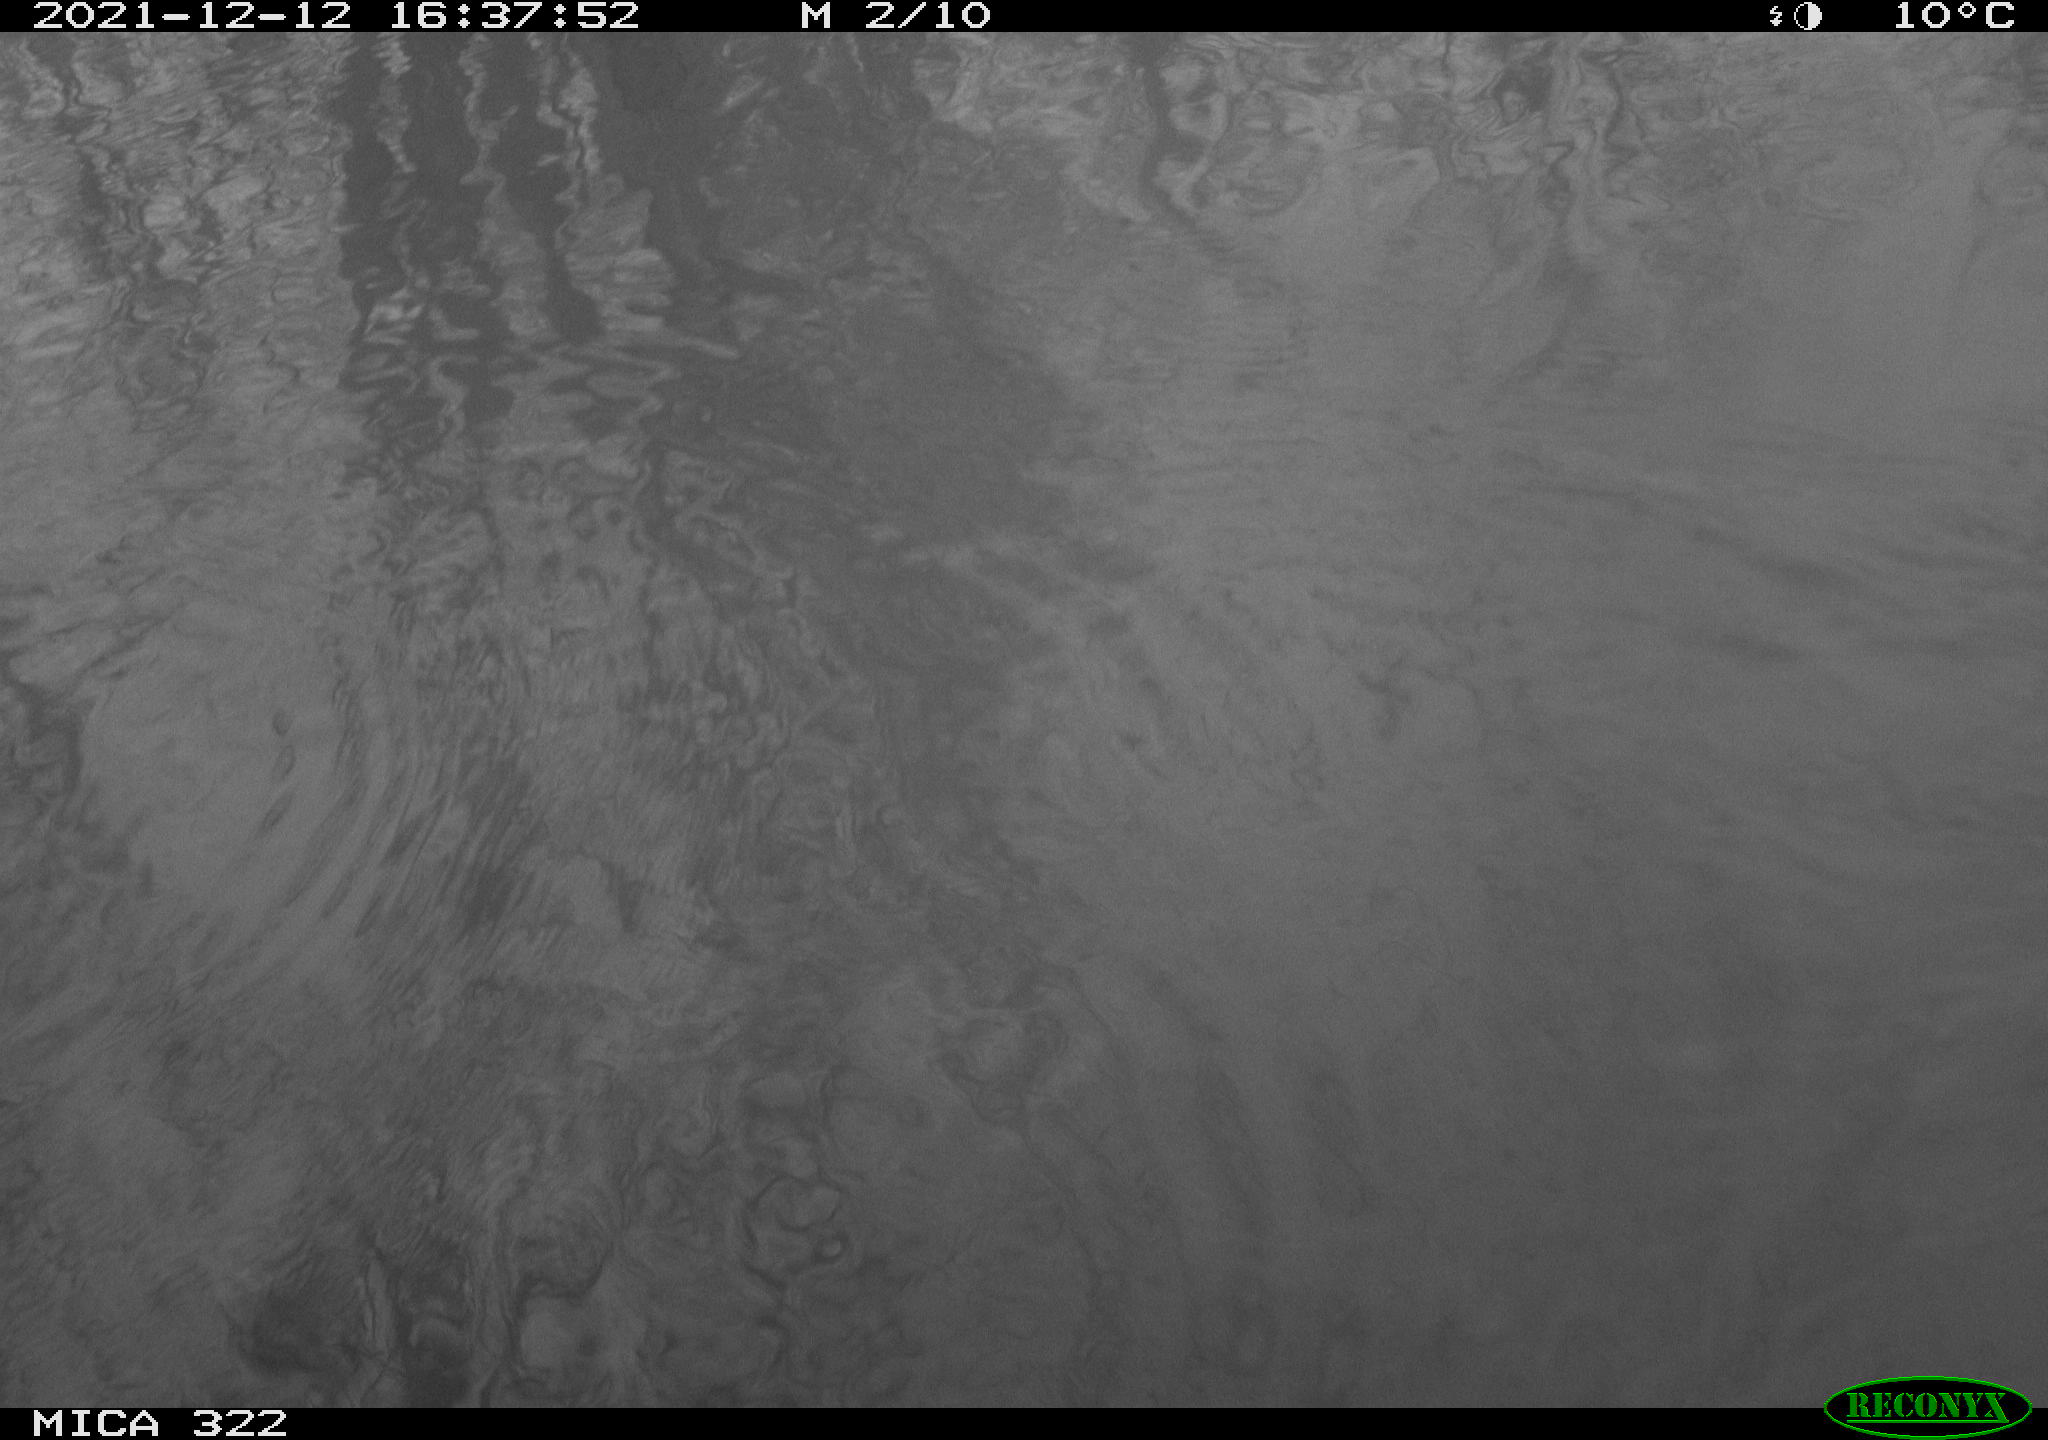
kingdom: Animalia
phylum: Chordata
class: Aves
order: Gruiformes
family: Rallidae
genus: Gallinula
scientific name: Gallinula chloropus
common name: Common moorhen
